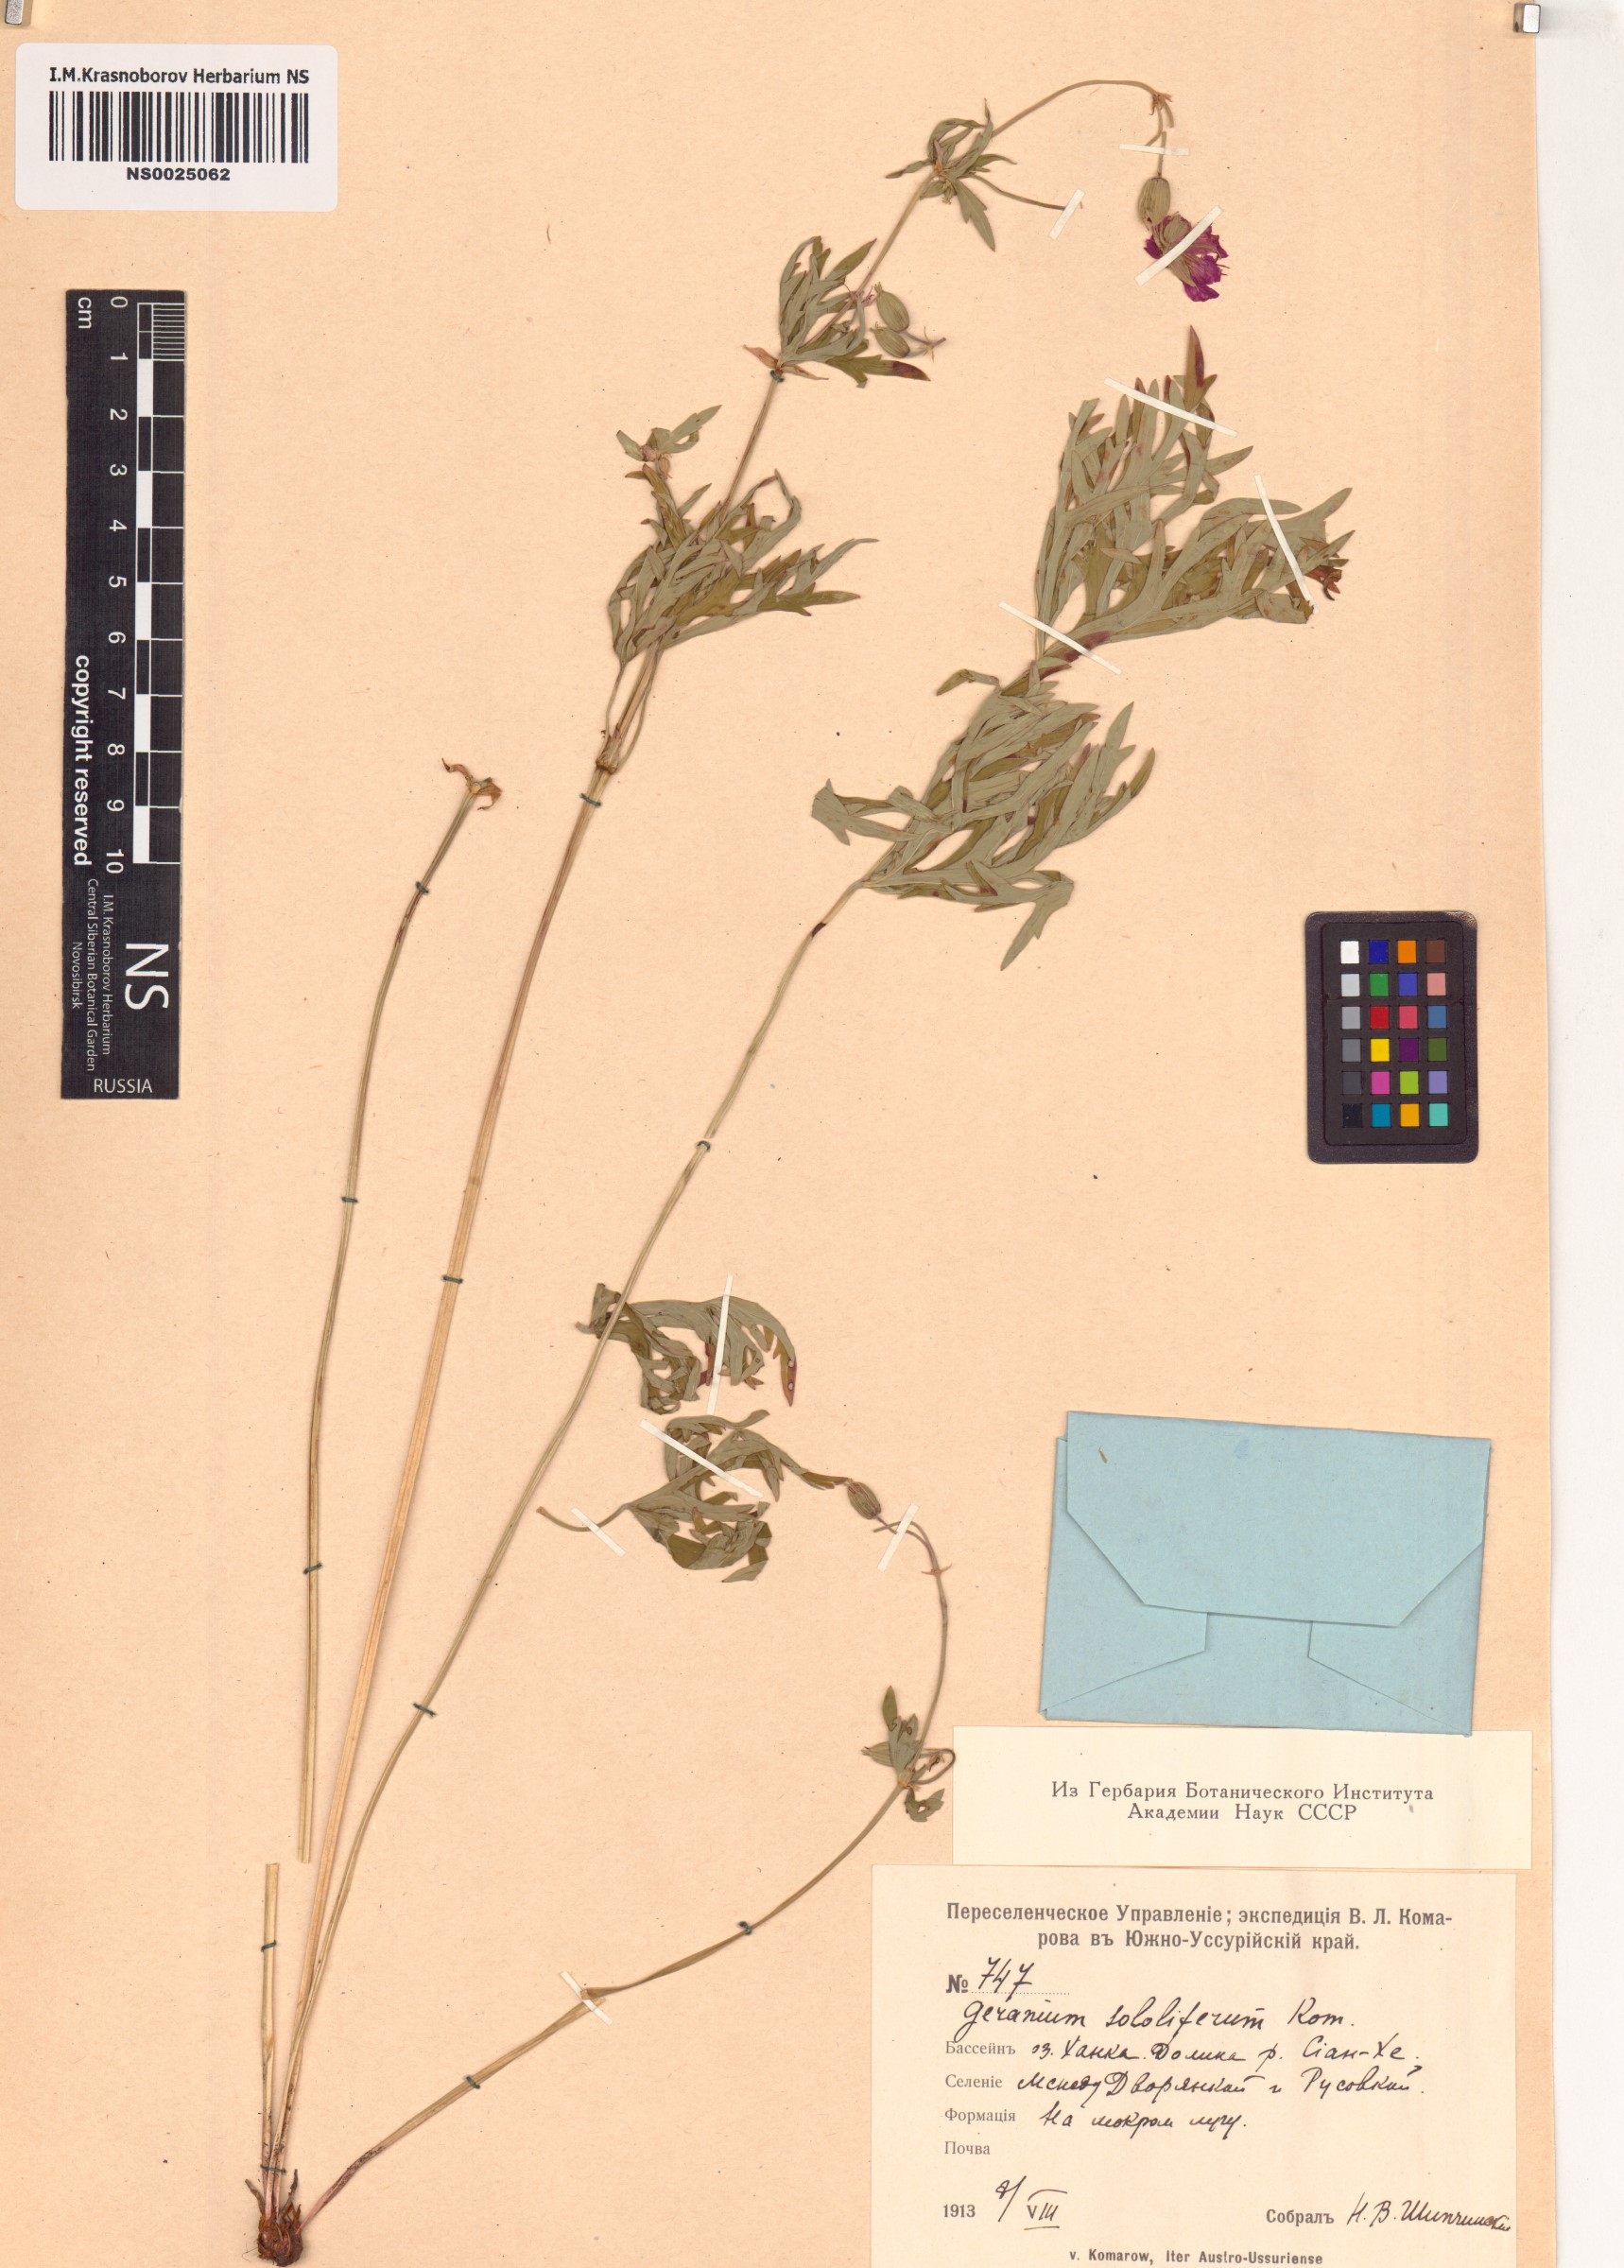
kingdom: Plantae
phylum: Tracheophyta
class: Magnoliopsida
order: Geraniales
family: Geraniaceae
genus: Geranium
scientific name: Geranium soboliferum
